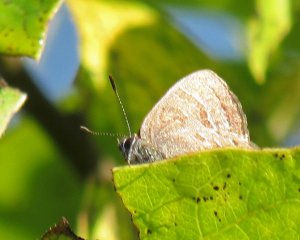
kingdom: Animalia
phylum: Arthropoda
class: Insecta
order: Lepidoptera
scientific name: Lepidoptera
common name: Butterflies
